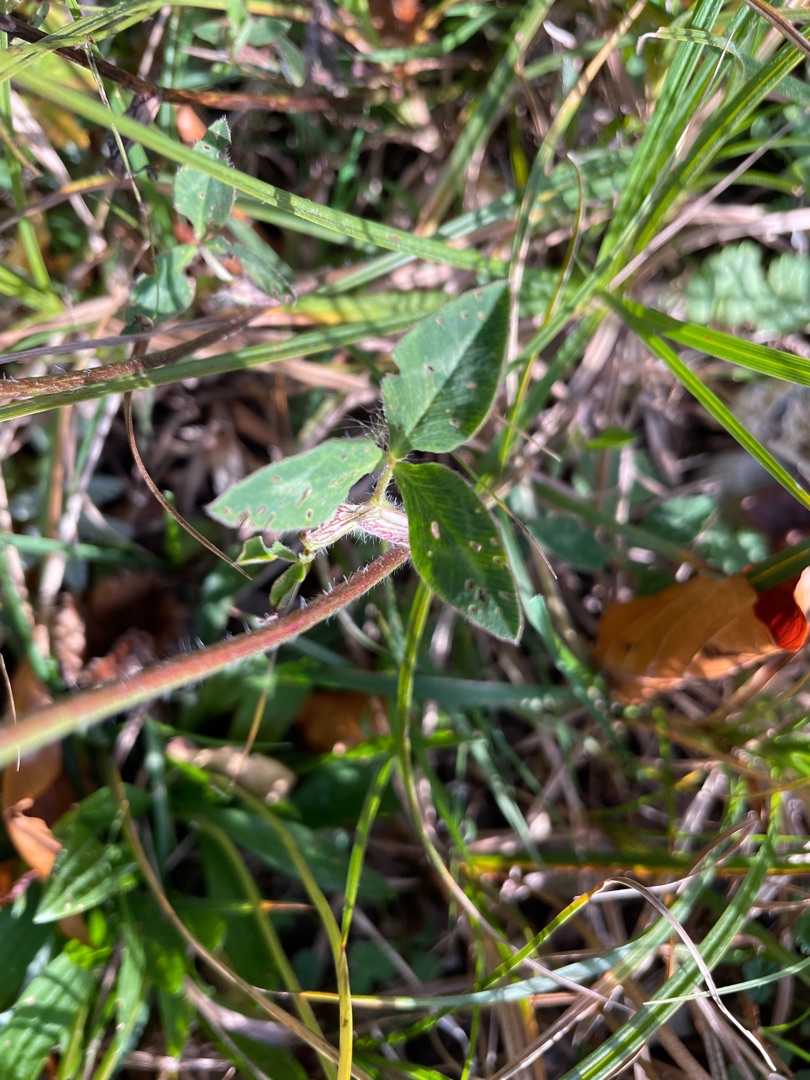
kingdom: Plantae
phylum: Tracheophyta
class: Magnoliopsida
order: Fabales
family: Fabaceae
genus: Trifolium
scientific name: Trifolium pratense
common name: Rød-kløver
